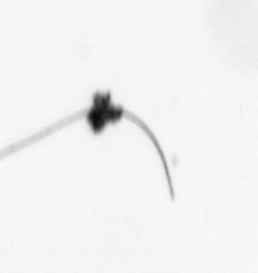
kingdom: Animalia
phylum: Arthropoda
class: Copepoda
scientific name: Copepoda
